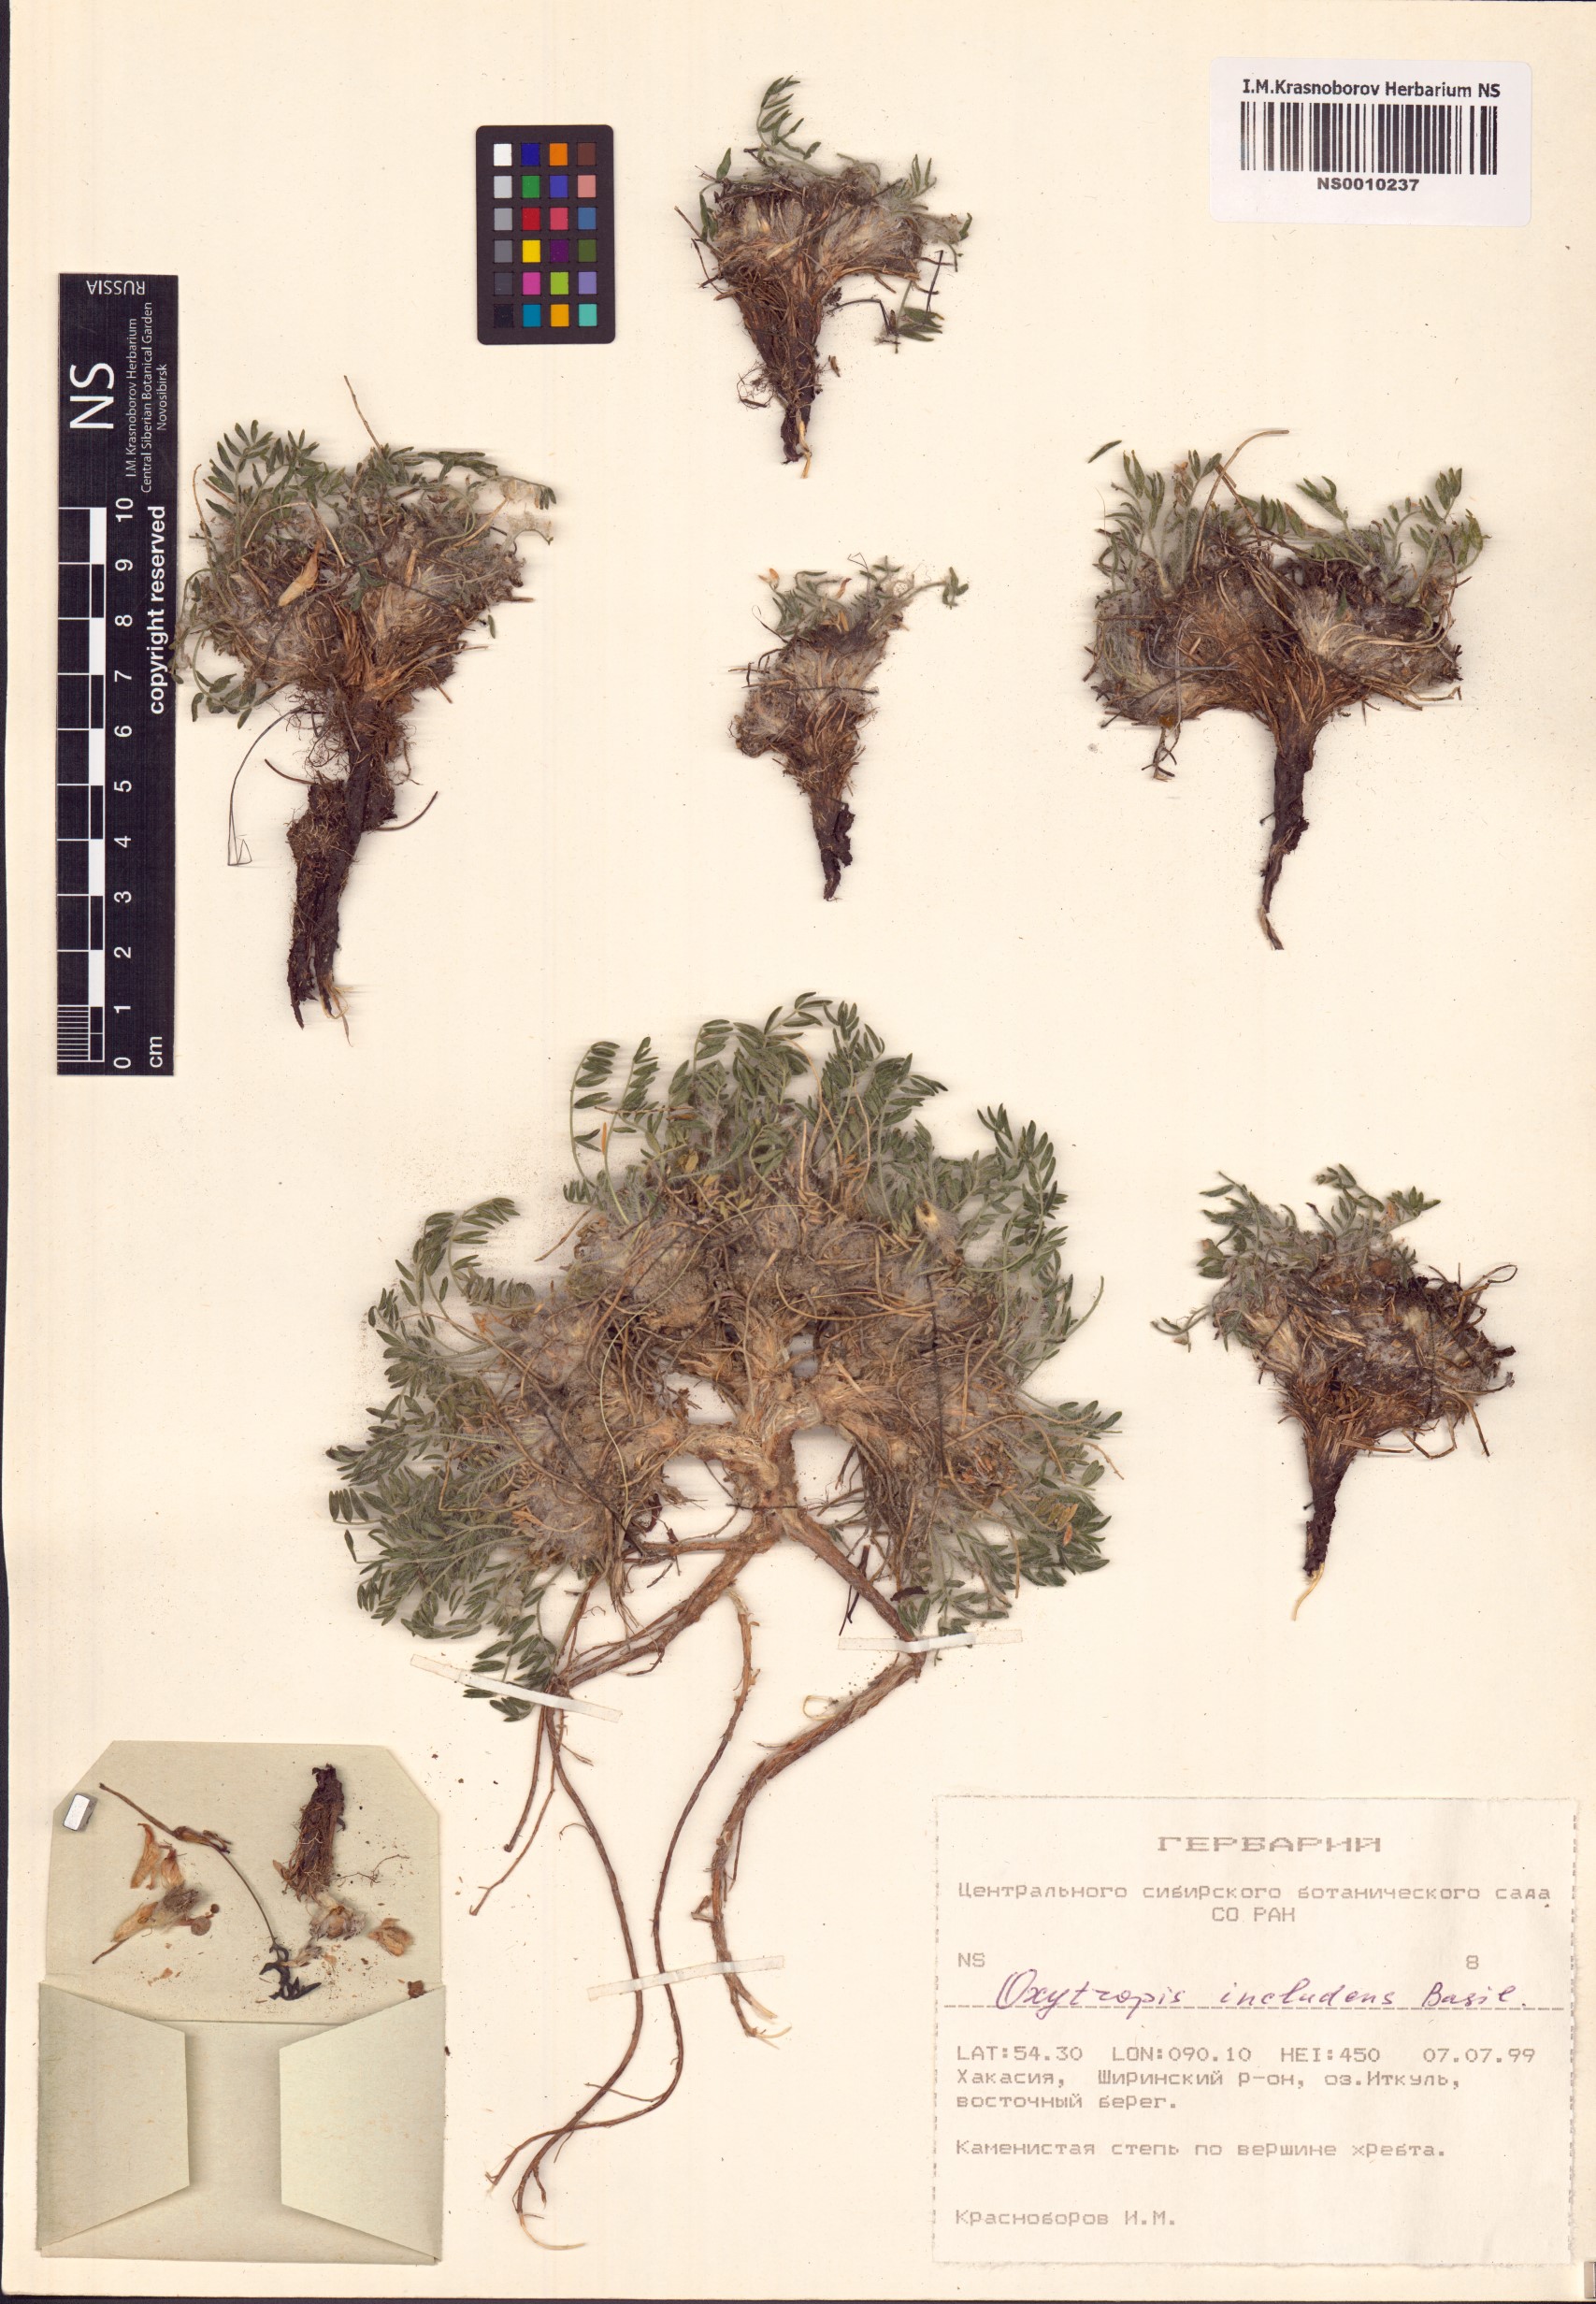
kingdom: Plantae
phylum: Tracheophyta
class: Magnoliopsida
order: Fabales
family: Fabaceae
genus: Oxytropis
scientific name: Oxytropis includens
